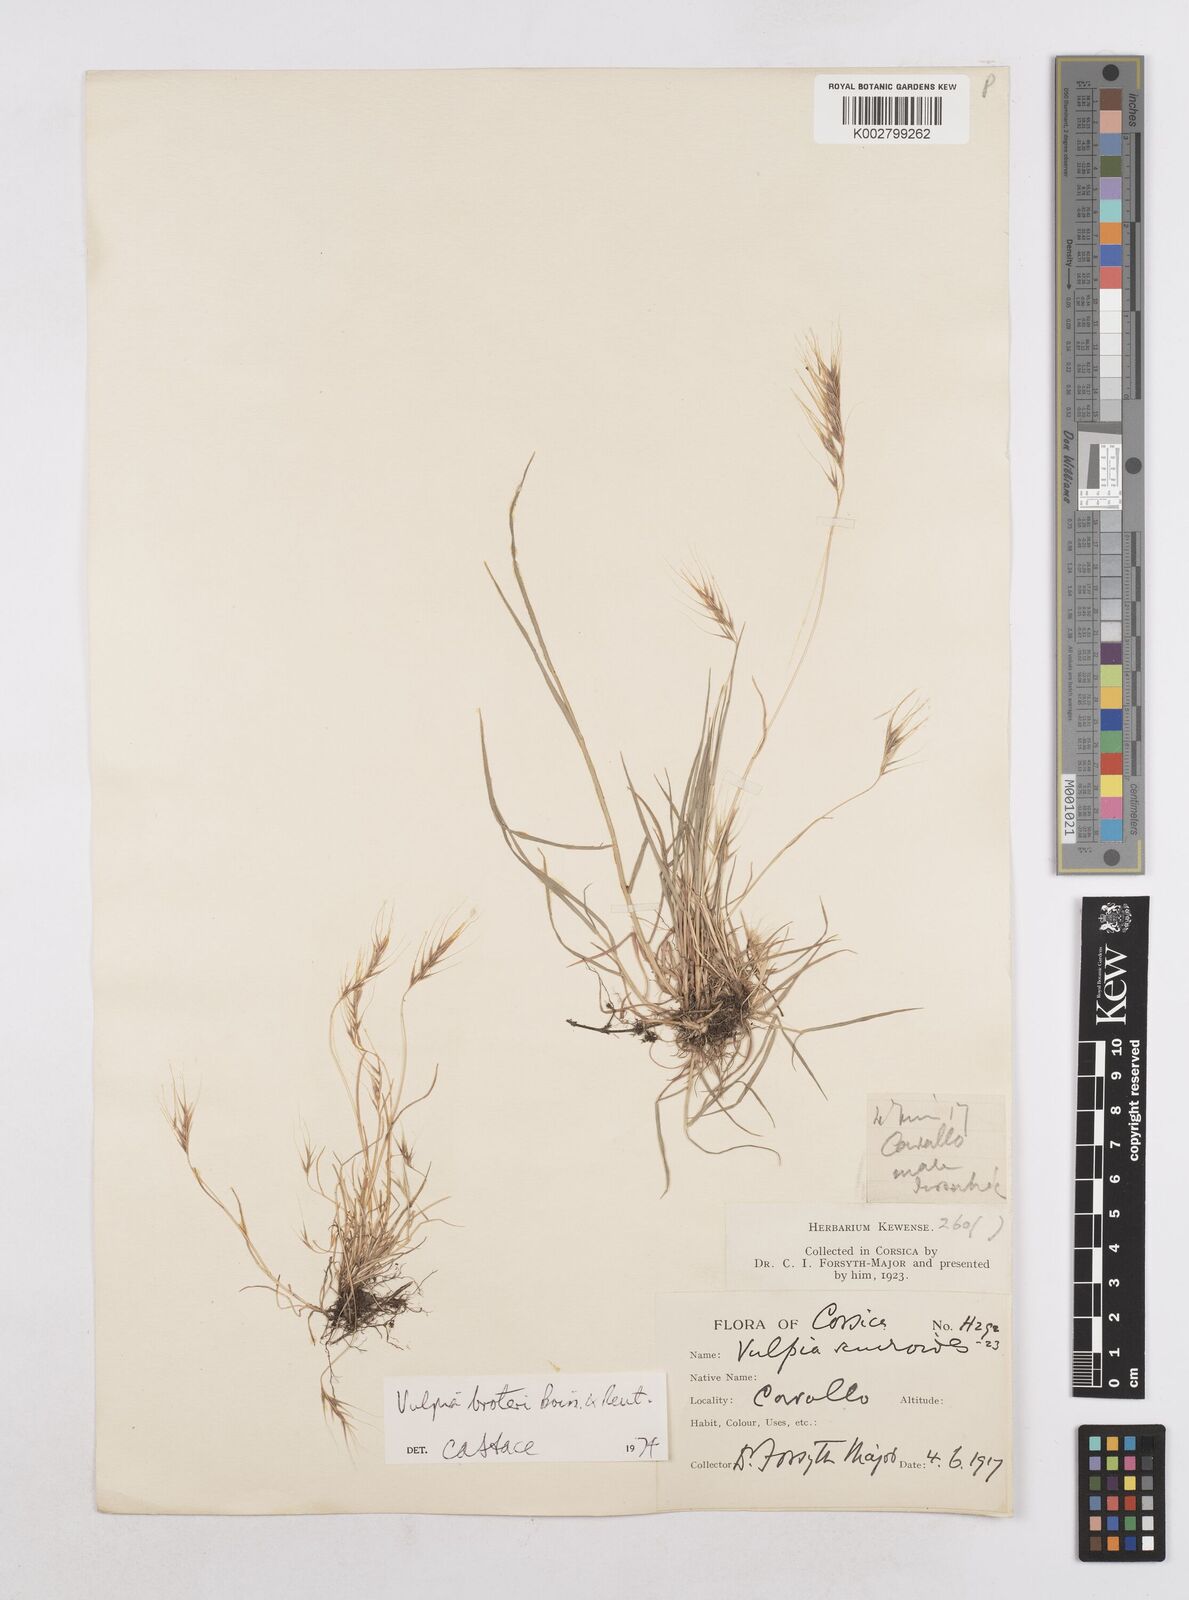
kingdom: Plantae
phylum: Tracheophyta
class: Liliopsida
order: Poales
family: Poaceae
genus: Festuca
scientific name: Festuca muralis
